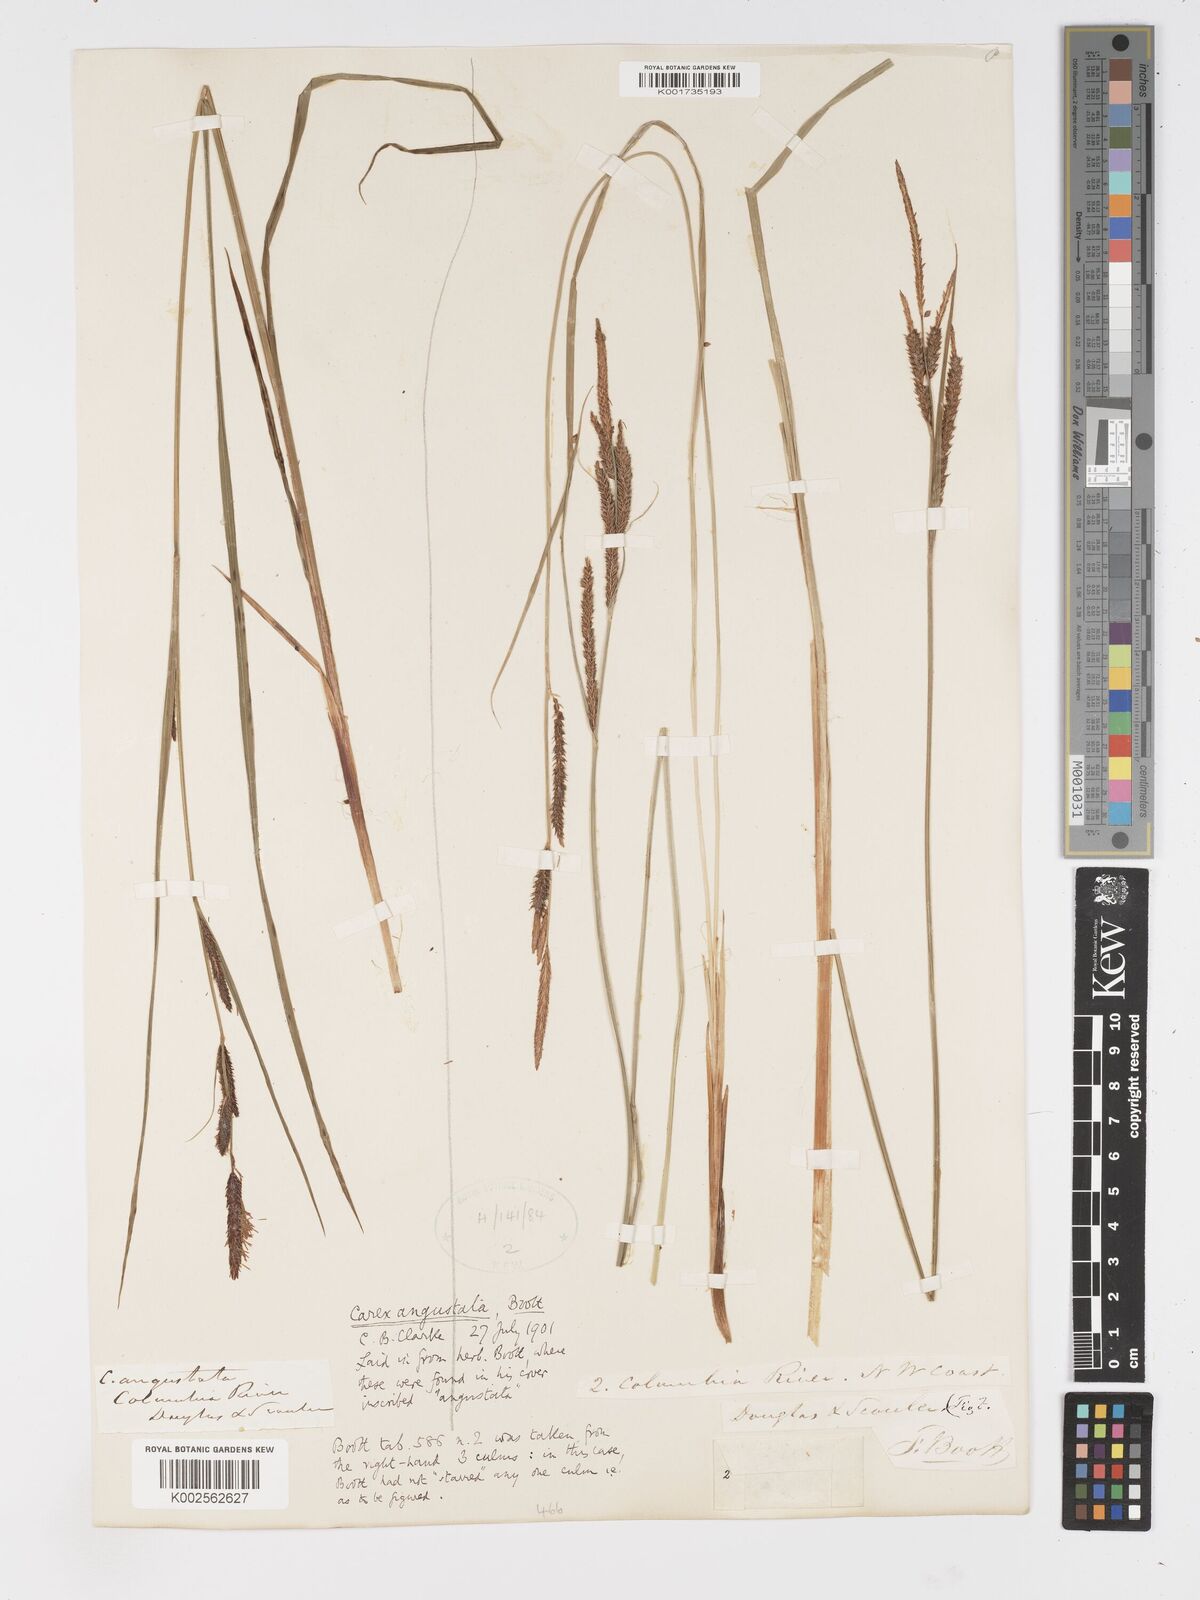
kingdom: Plantae
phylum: Tracheophyta
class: Liliopsida
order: Poales
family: Cyperaceae
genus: Carex
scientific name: Carex stricta
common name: Hummock sedge
